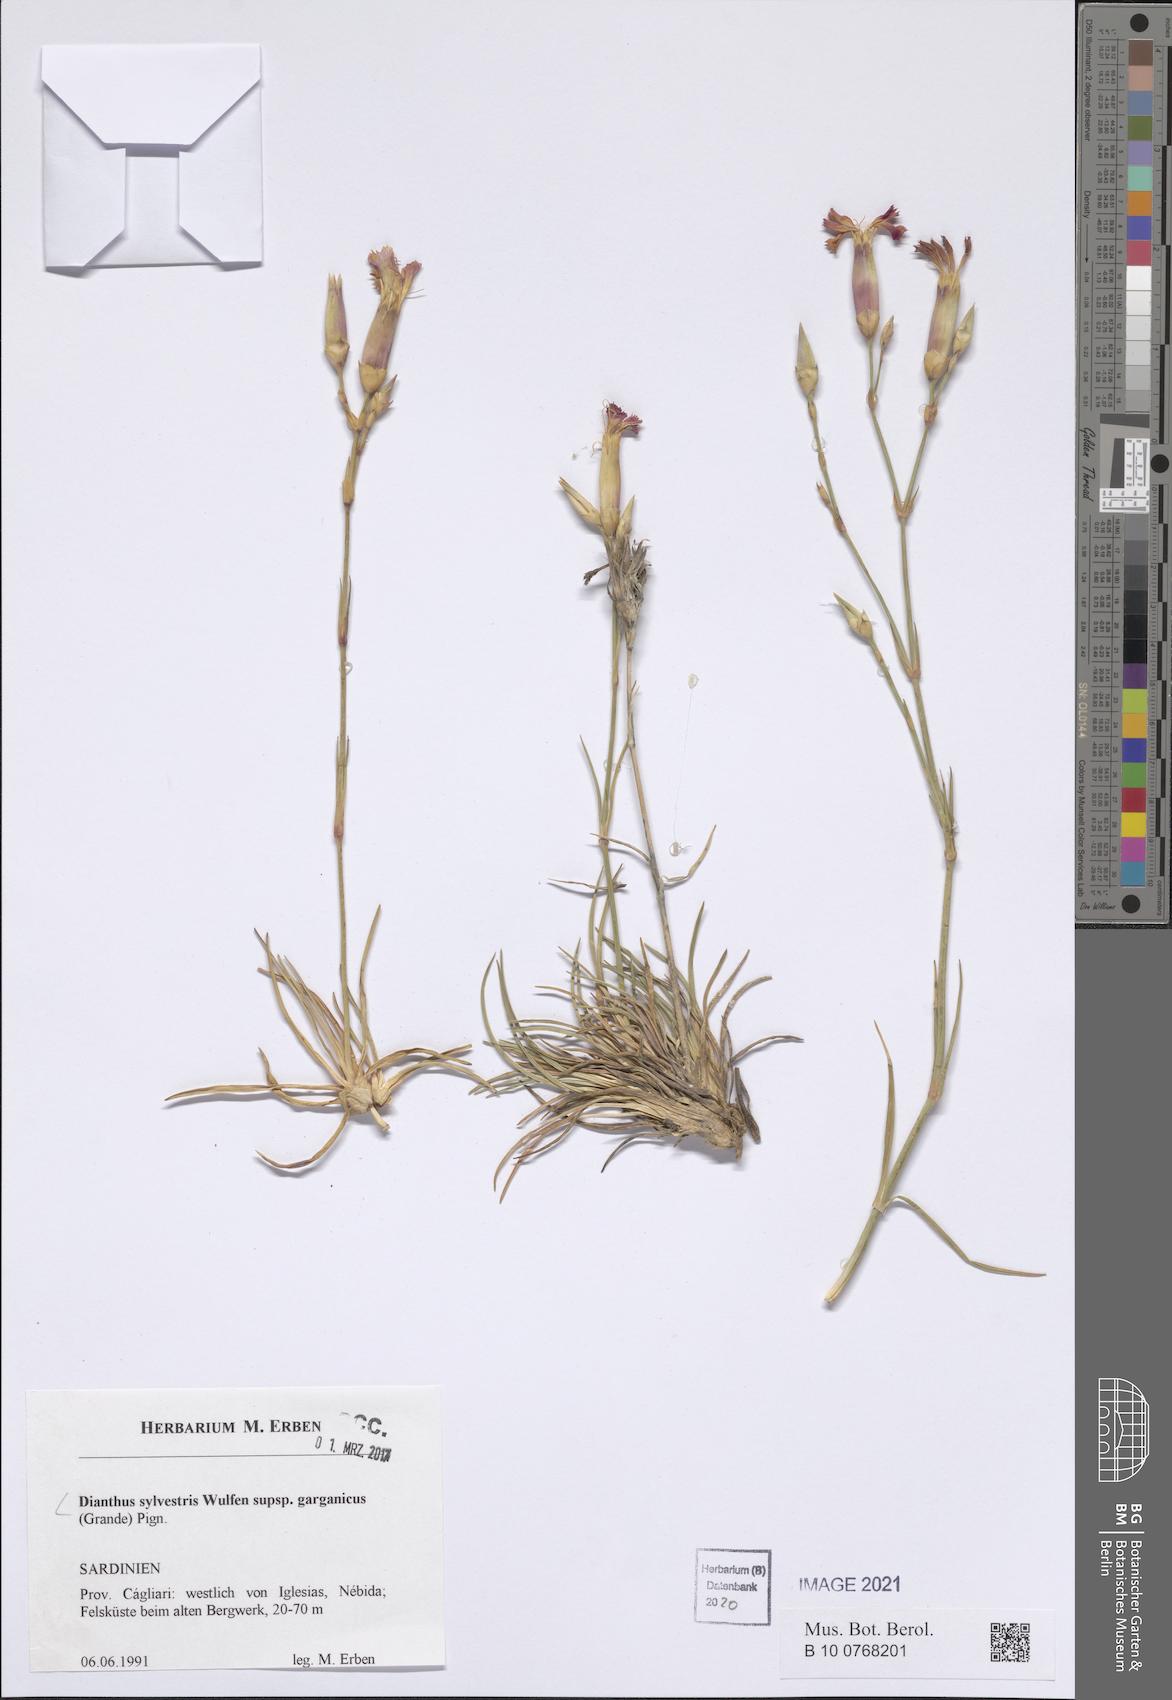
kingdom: Plantae
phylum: Tracheophyta
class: Magnoliopsida
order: Caryophyllales
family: Caryophyllaceae
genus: Dianthus
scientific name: Dianthus tarentinus
